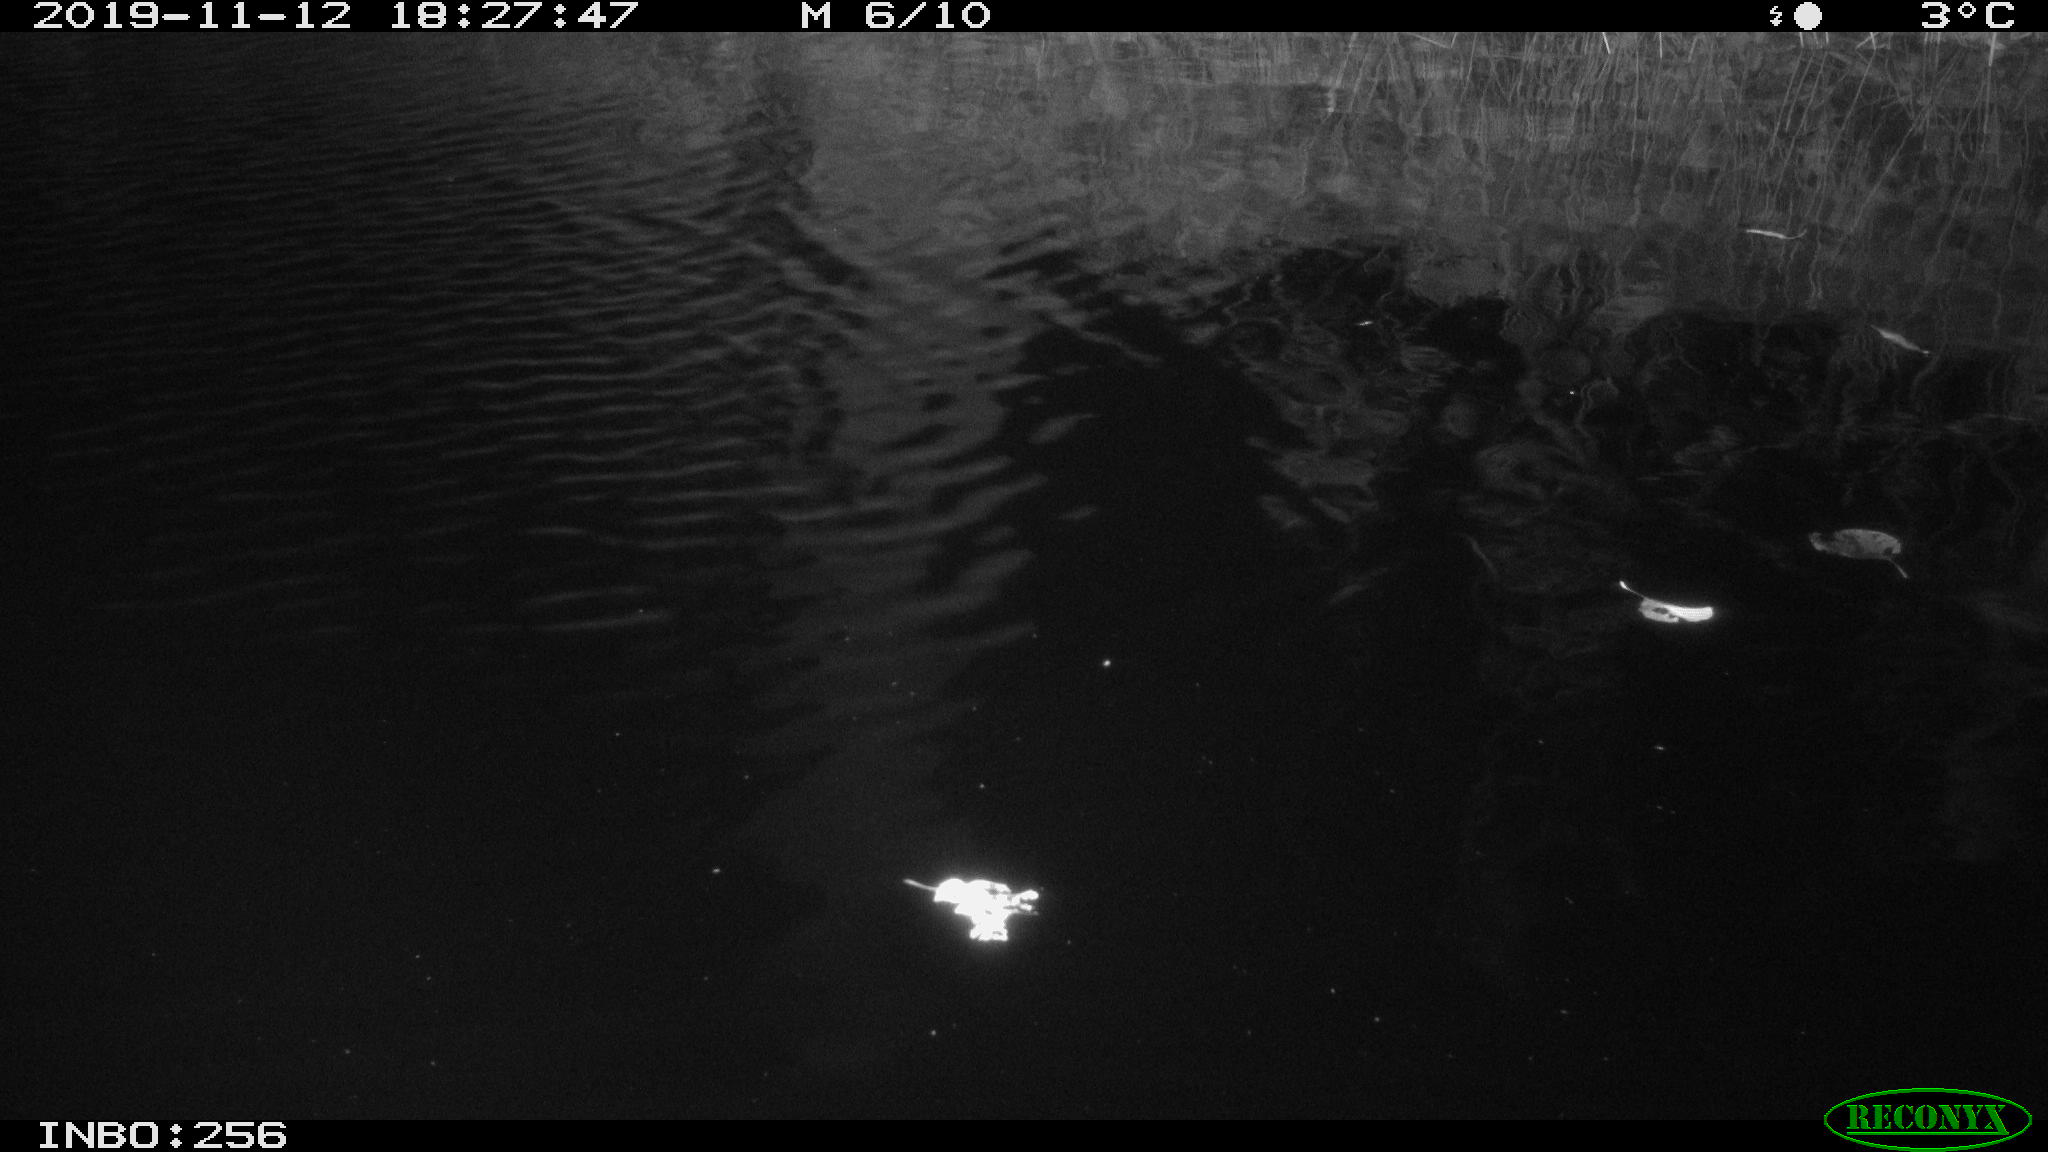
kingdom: Animalia
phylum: Chordata
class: Mammalia
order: Rodentia
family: Muridae
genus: Rattus
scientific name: Rattus norvegicus
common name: Brown rat
